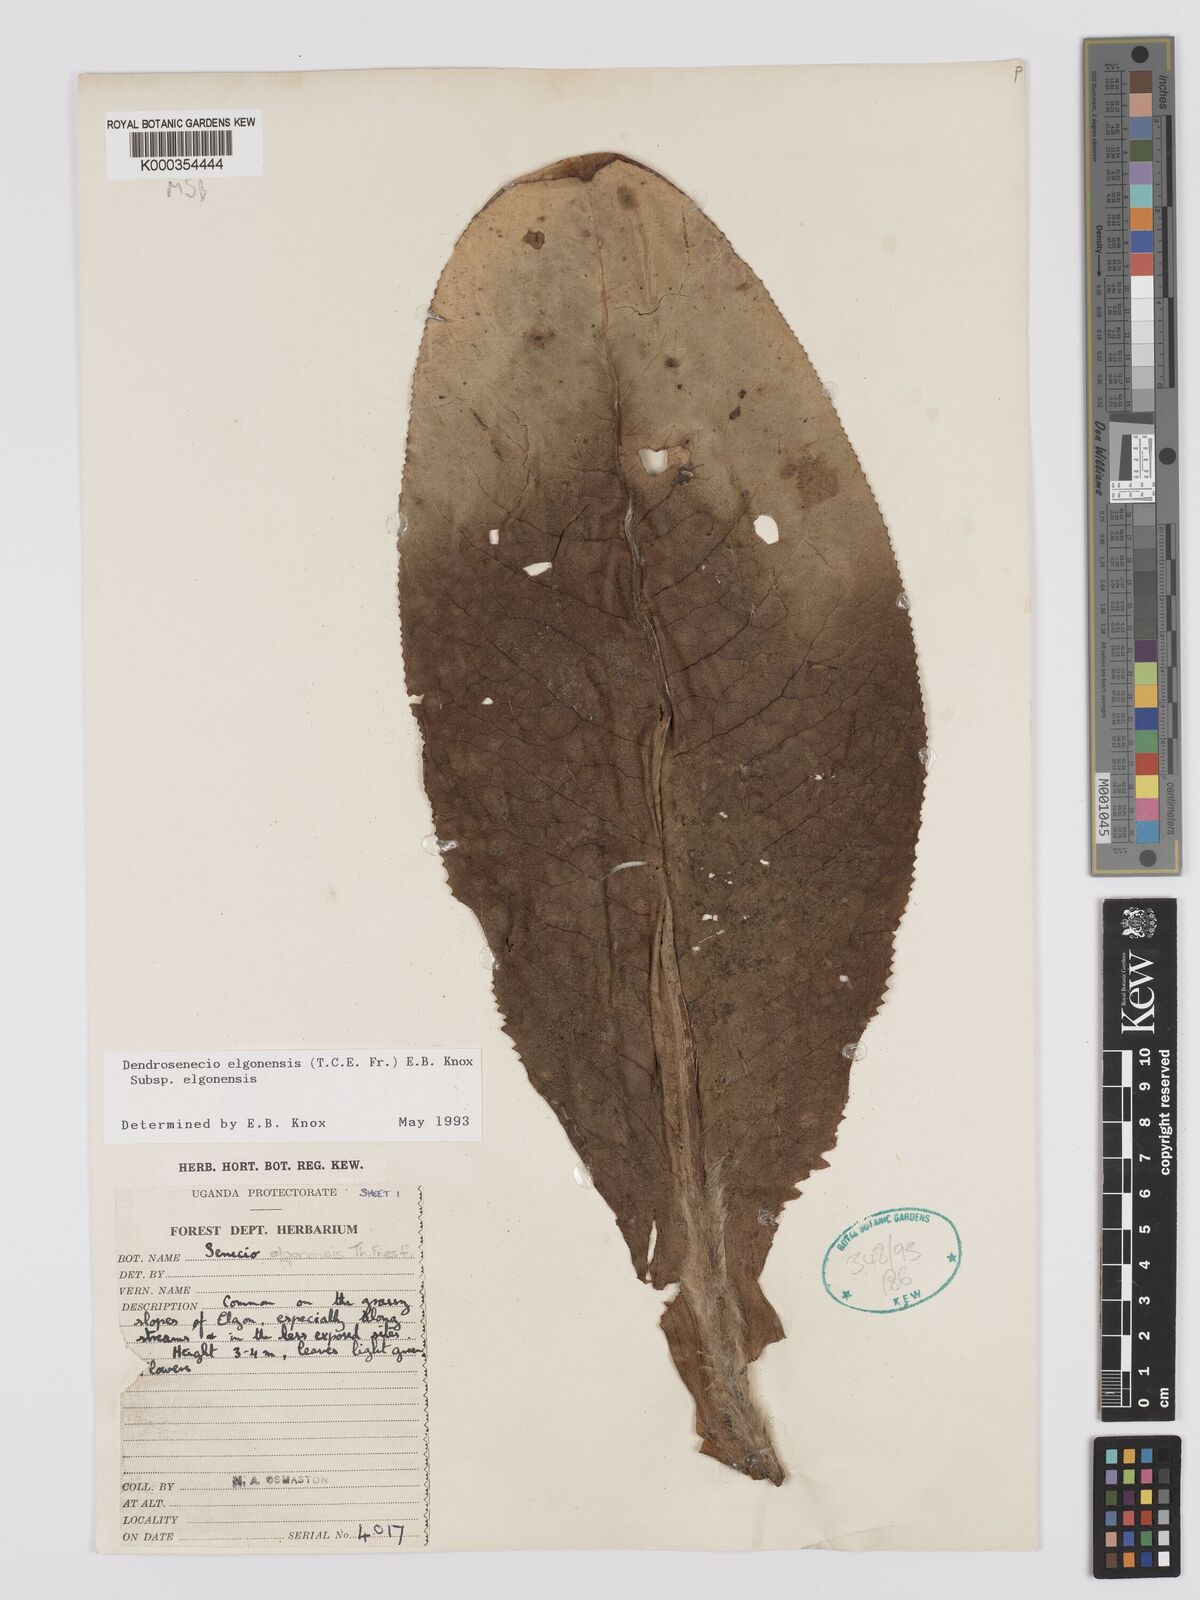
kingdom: Plantae
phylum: Tracheophyta
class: Magnoliopsida
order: Asterales
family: Asteraceae
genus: Dendrosenecio
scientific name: Dendrosenecio elgonensis
